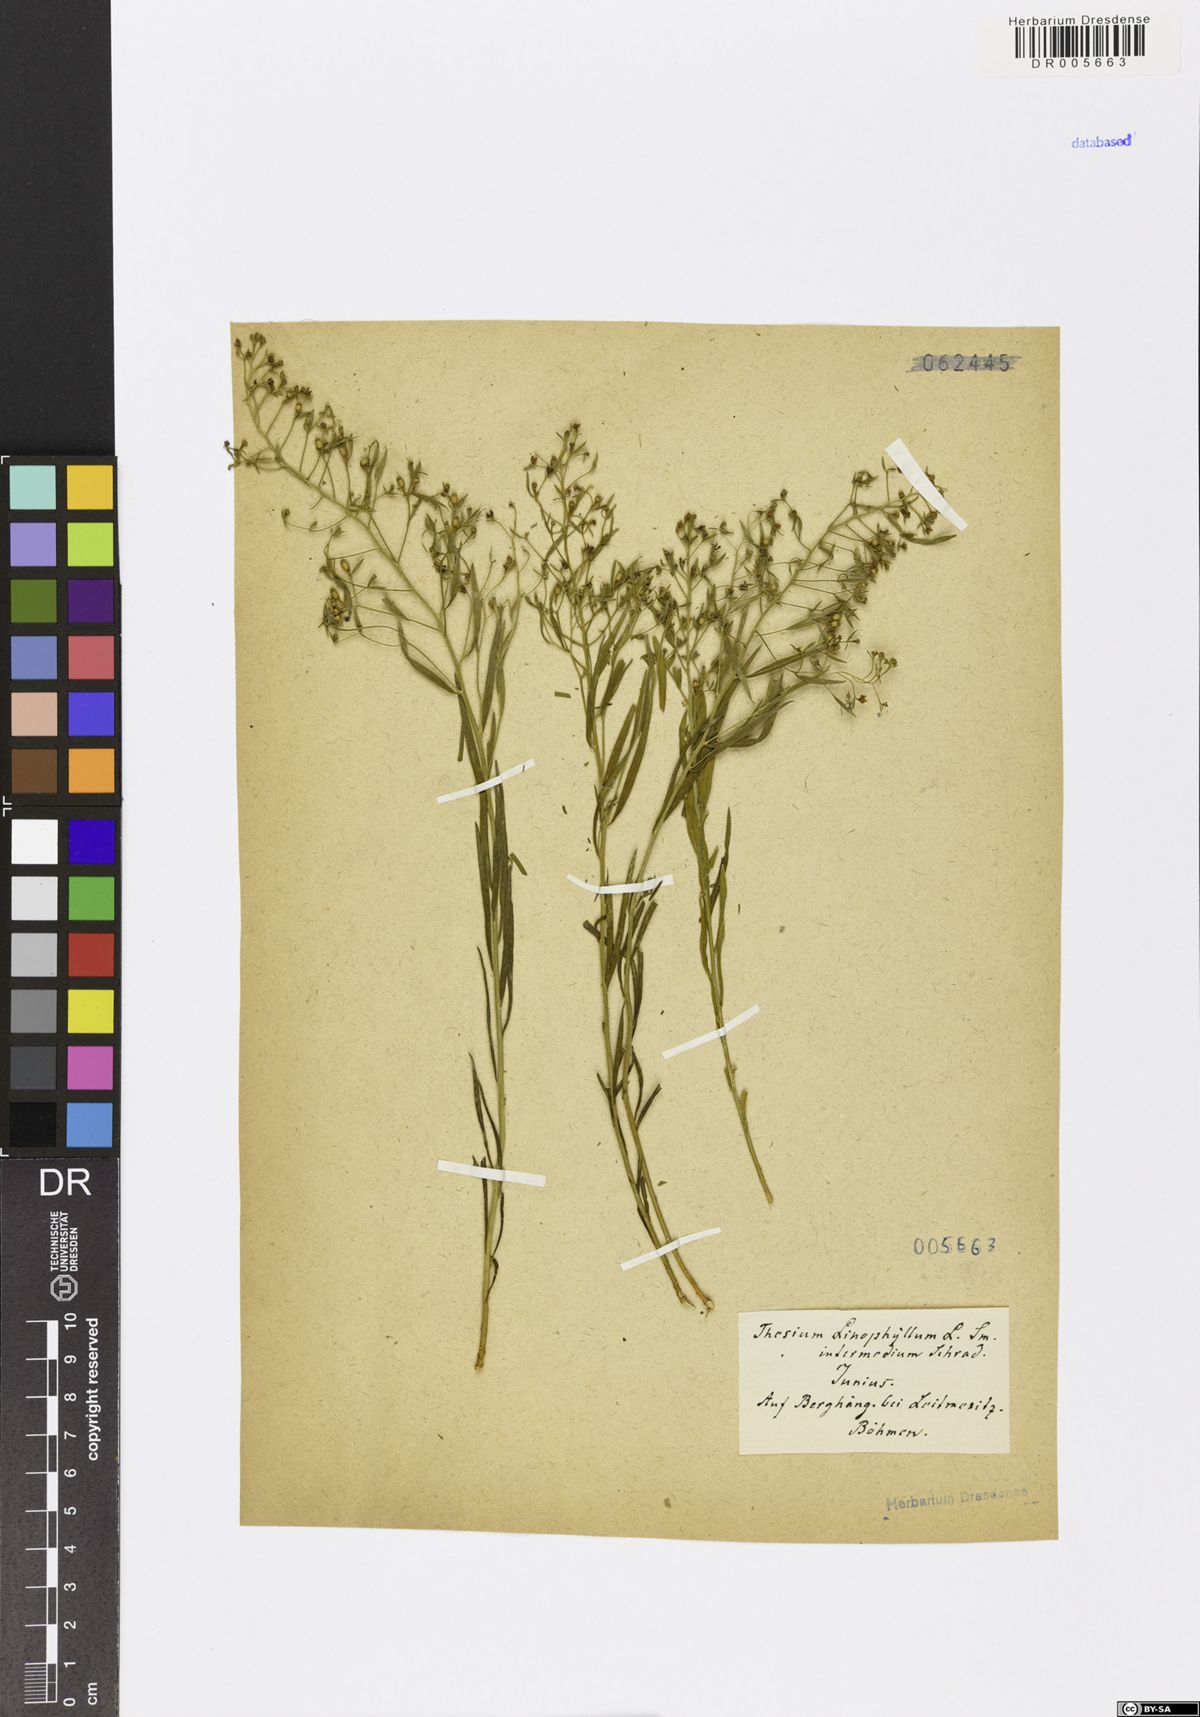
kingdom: Plantae
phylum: Tracheophyta
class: Magnoliopsida
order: Santalales
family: Thesiaceae
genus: Thesium
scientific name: Thesium linophyllon
